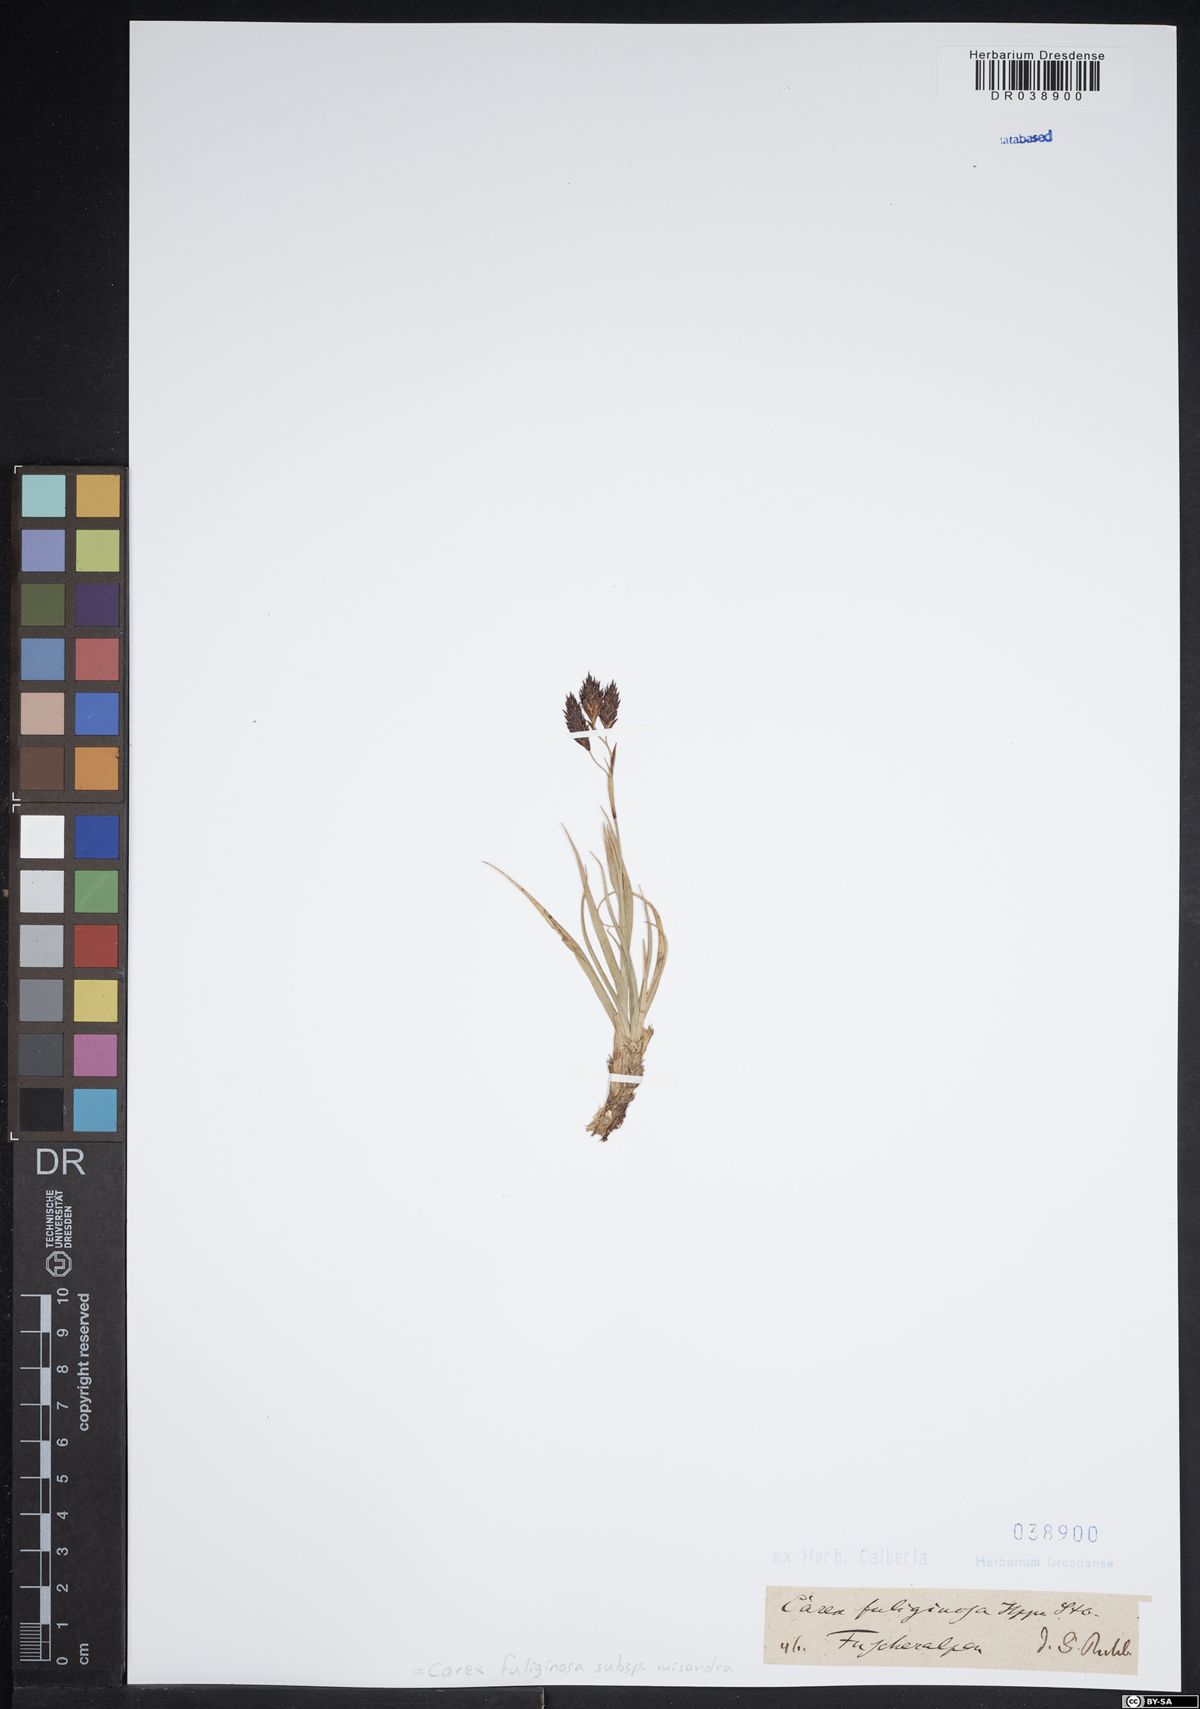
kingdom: Plantae
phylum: Tracheophyta
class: Liliopsida
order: Poales
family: Cyperaceae
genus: Carex
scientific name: Carex fuliginosa
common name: Few-flowered sedge
